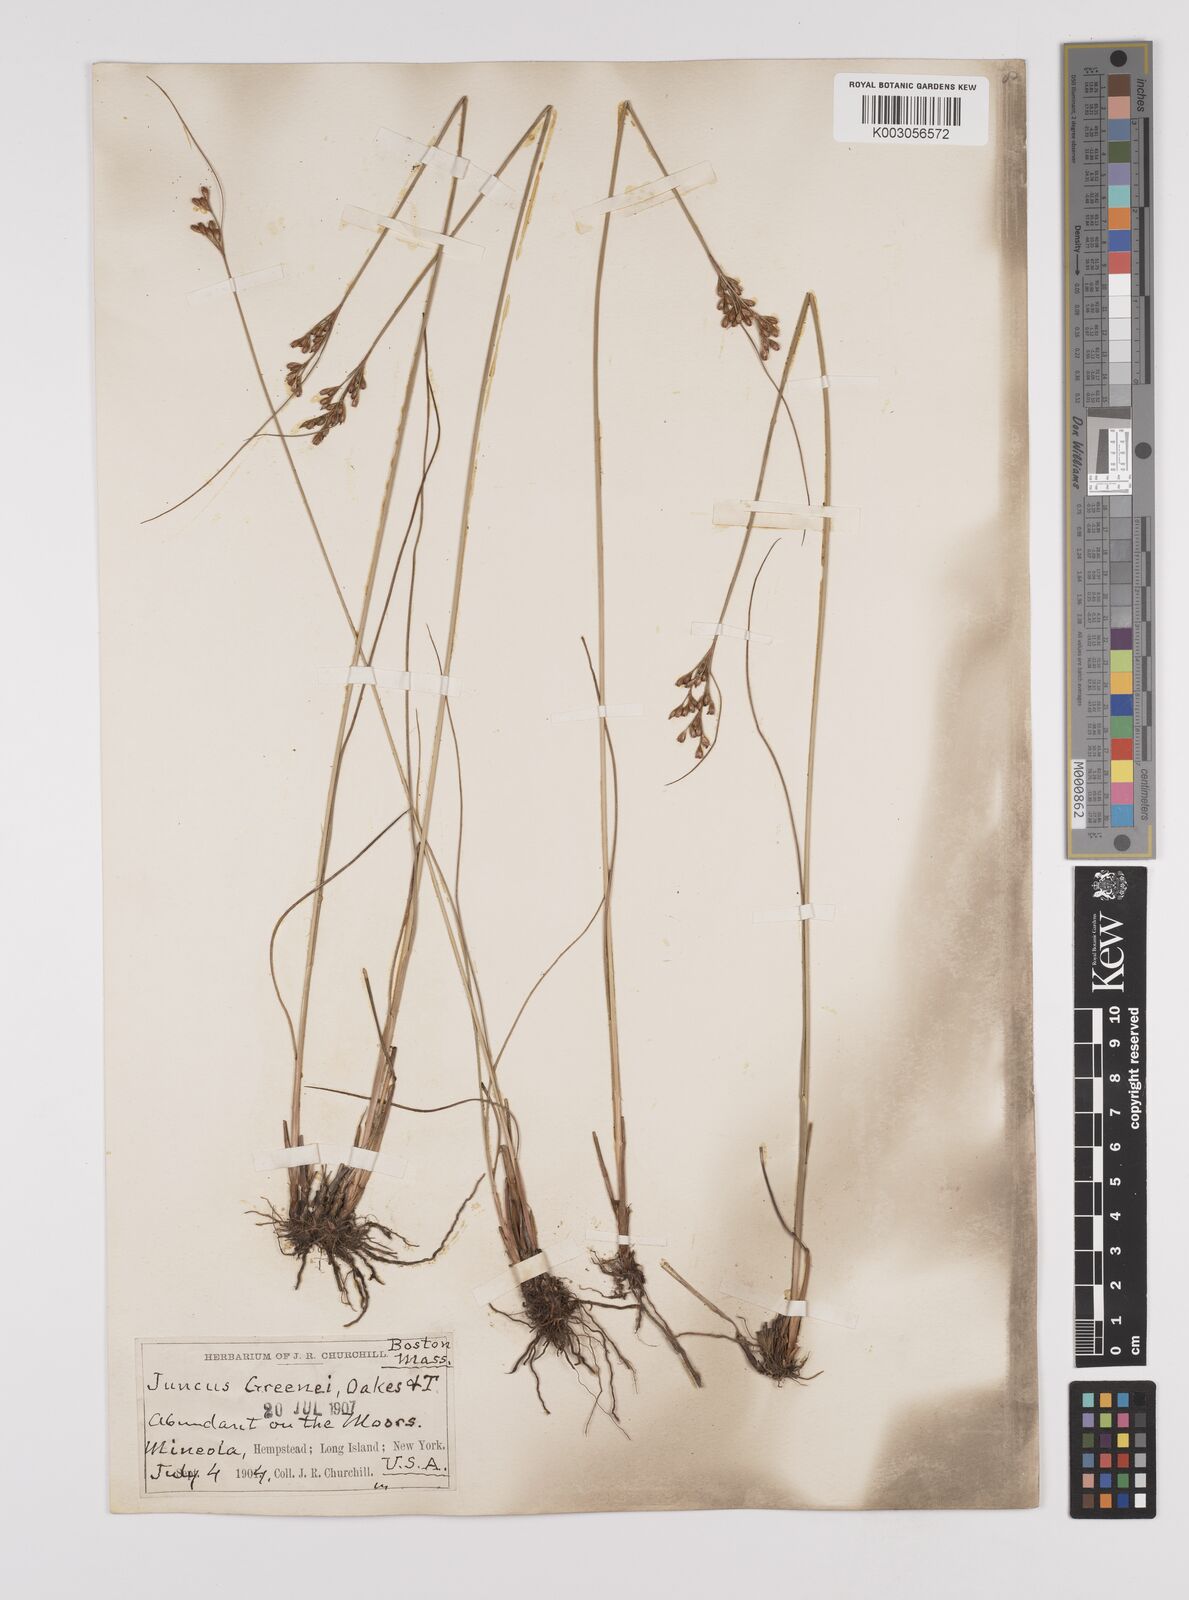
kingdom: Plantae
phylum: Tracheophyta
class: Liliopsida
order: Poales
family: Juncaceae
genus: Juncus
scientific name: Juncus greenei
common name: Greene's rush
